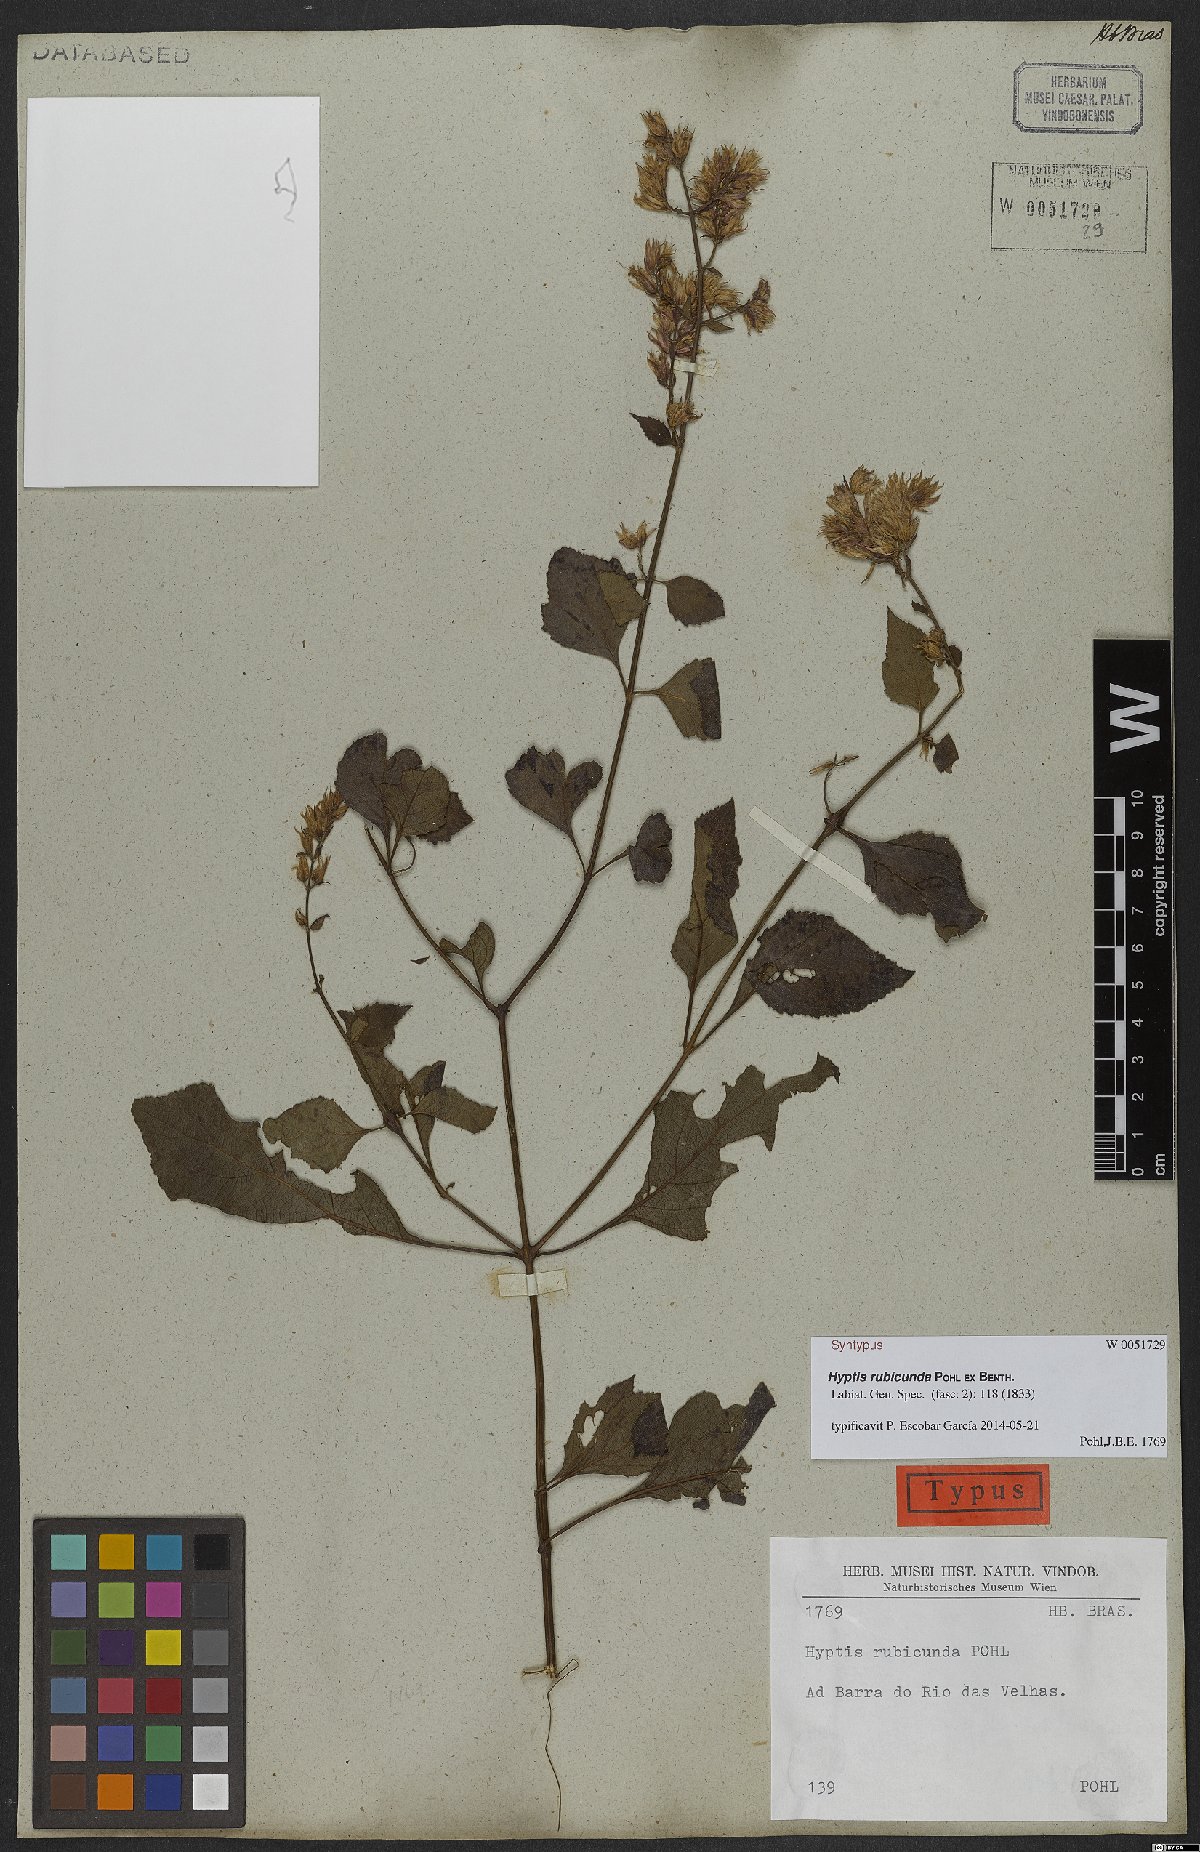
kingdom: Plantae
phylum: Tracheophyta
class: Magnoliopsida
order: Lamiales
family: Lamiaceae
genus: Cantinoa
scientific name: Cantinoa rubicunda
